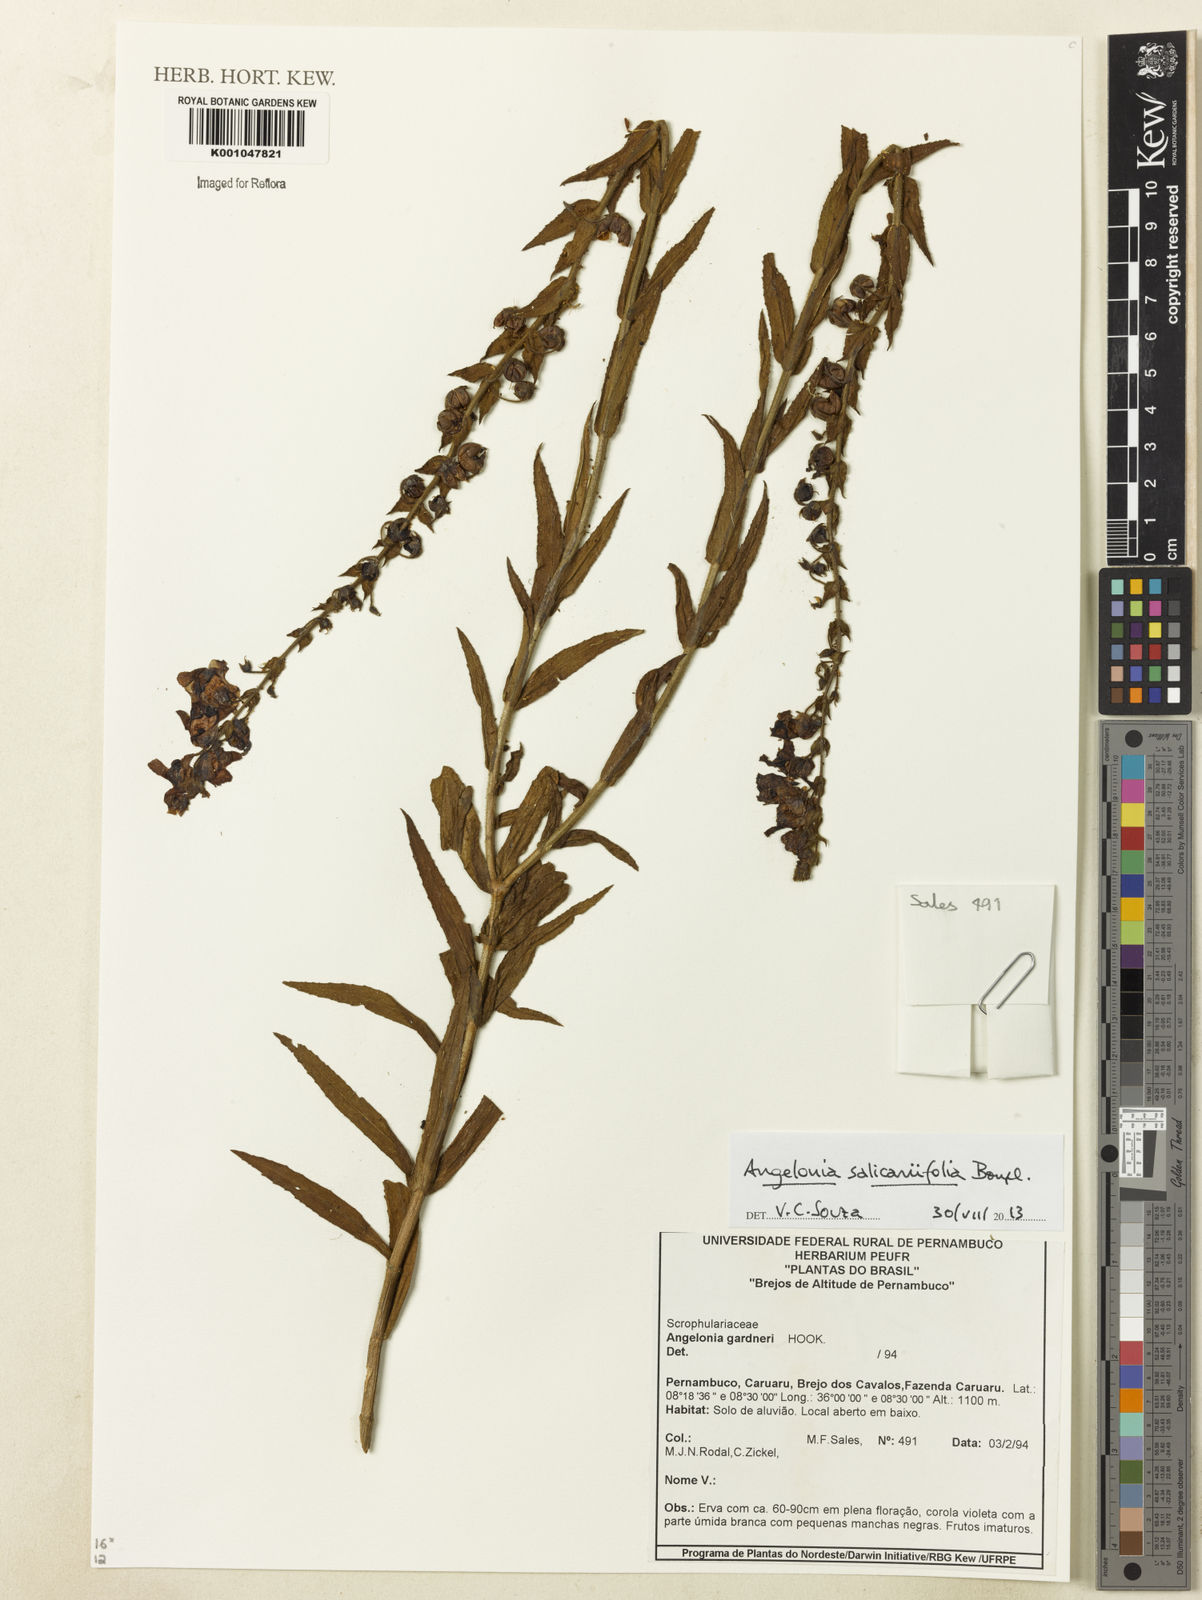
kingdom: Plantae
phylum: Tracheophyta
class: Magnoliopsida
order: Lamiales
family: Plantaginaceae
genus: Angelonia
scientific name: Angelonia salicariifolia
